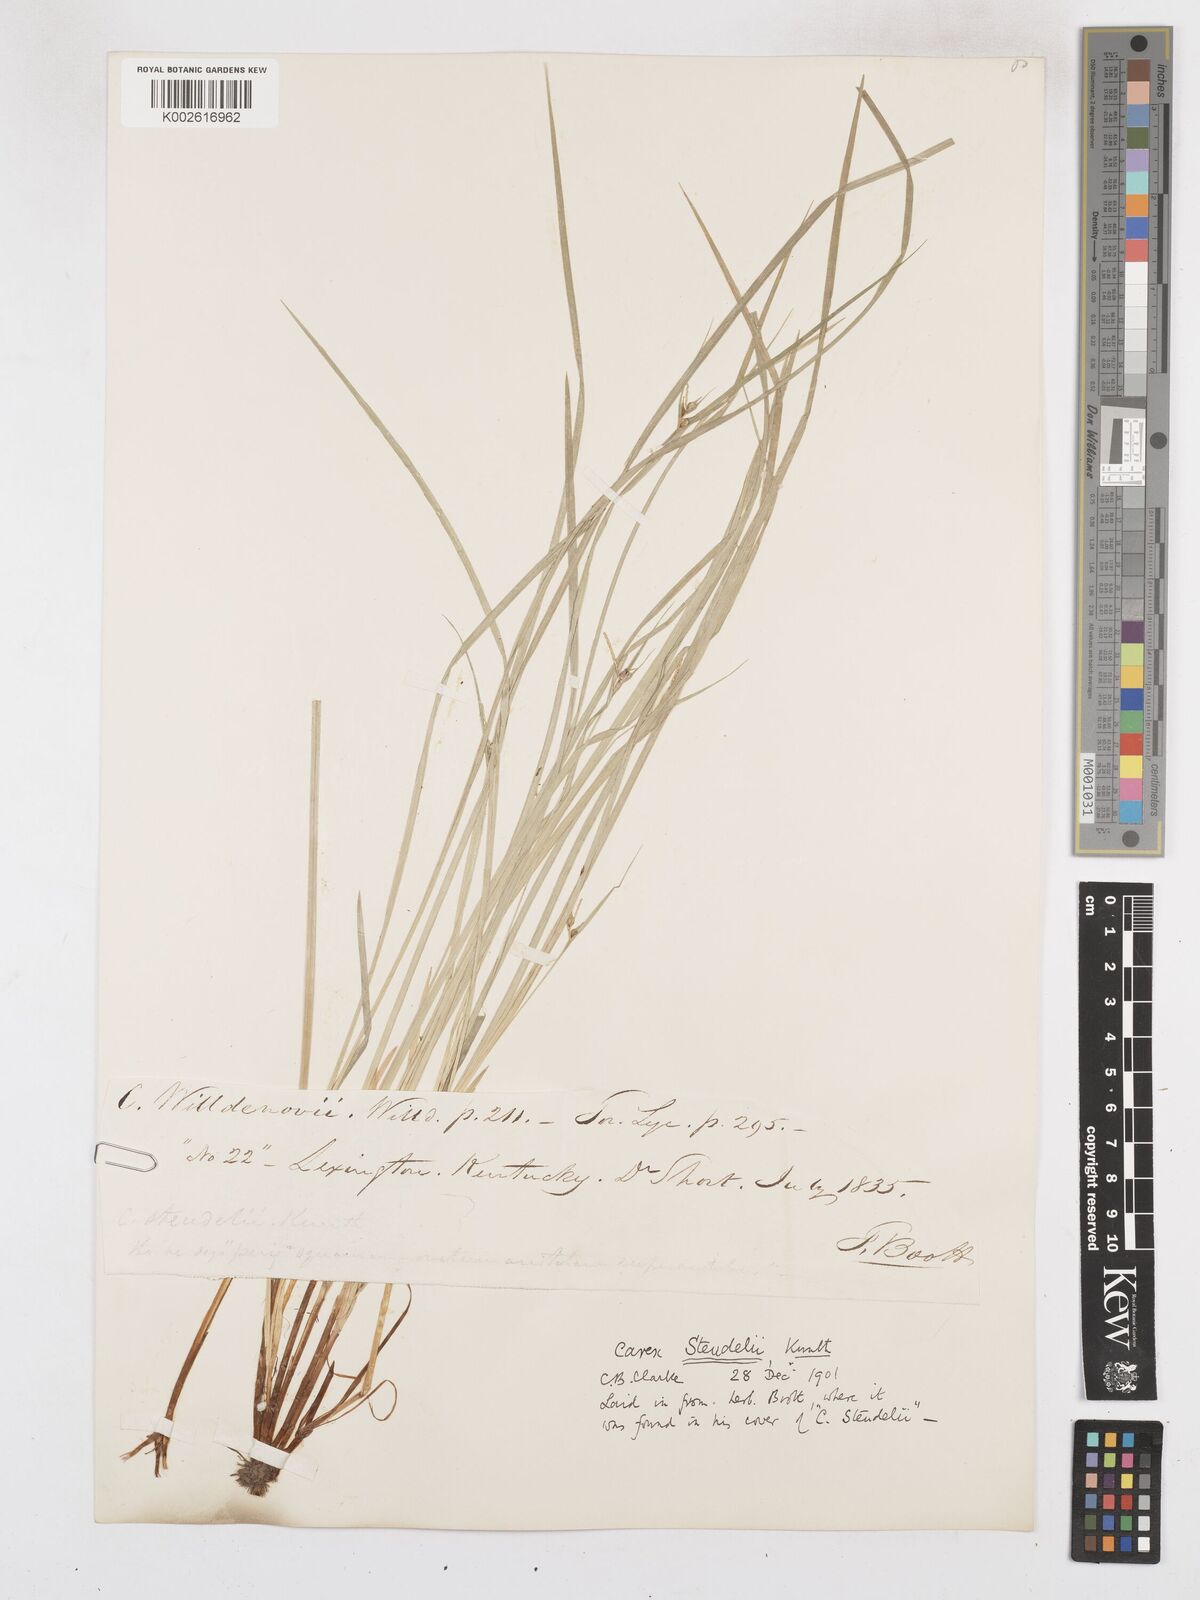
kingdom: Plantae
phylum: Tracheophyta
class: Liliopsida
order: Poales
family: Cyperaceae
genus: Carex
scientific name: Carex jamesii
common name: Grass sedge
